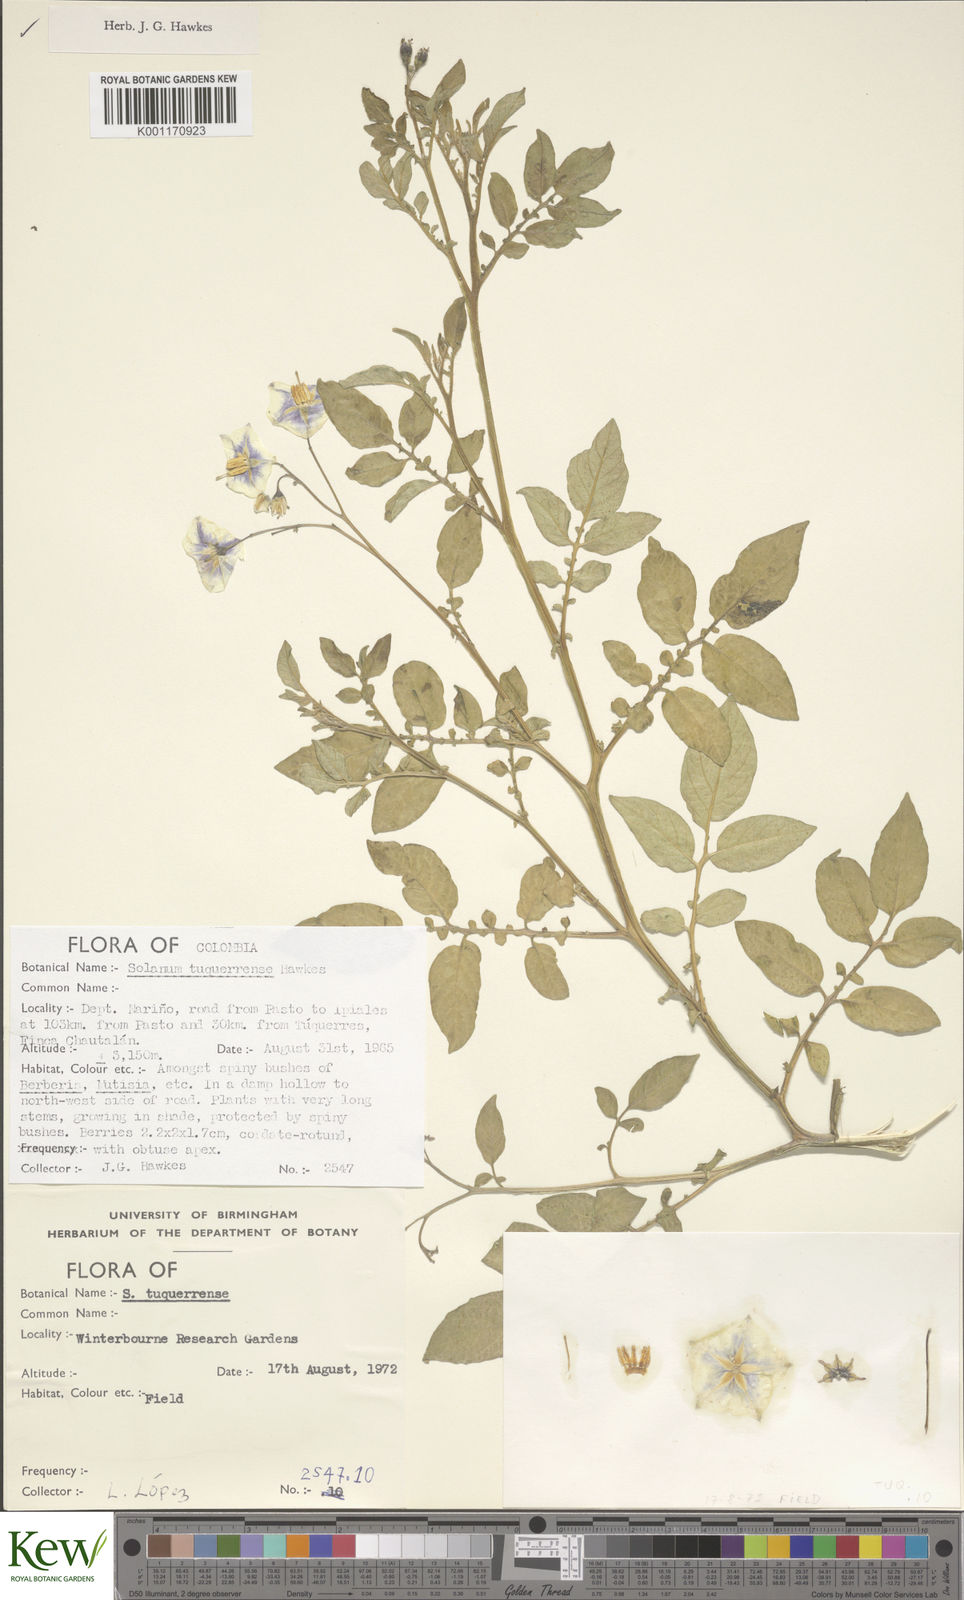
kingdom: Plantae
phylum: Tracheophyta
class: Magnoliopsida
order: Solanales
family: Solanaceae
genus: Solanum
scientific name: Solanum andreanum
